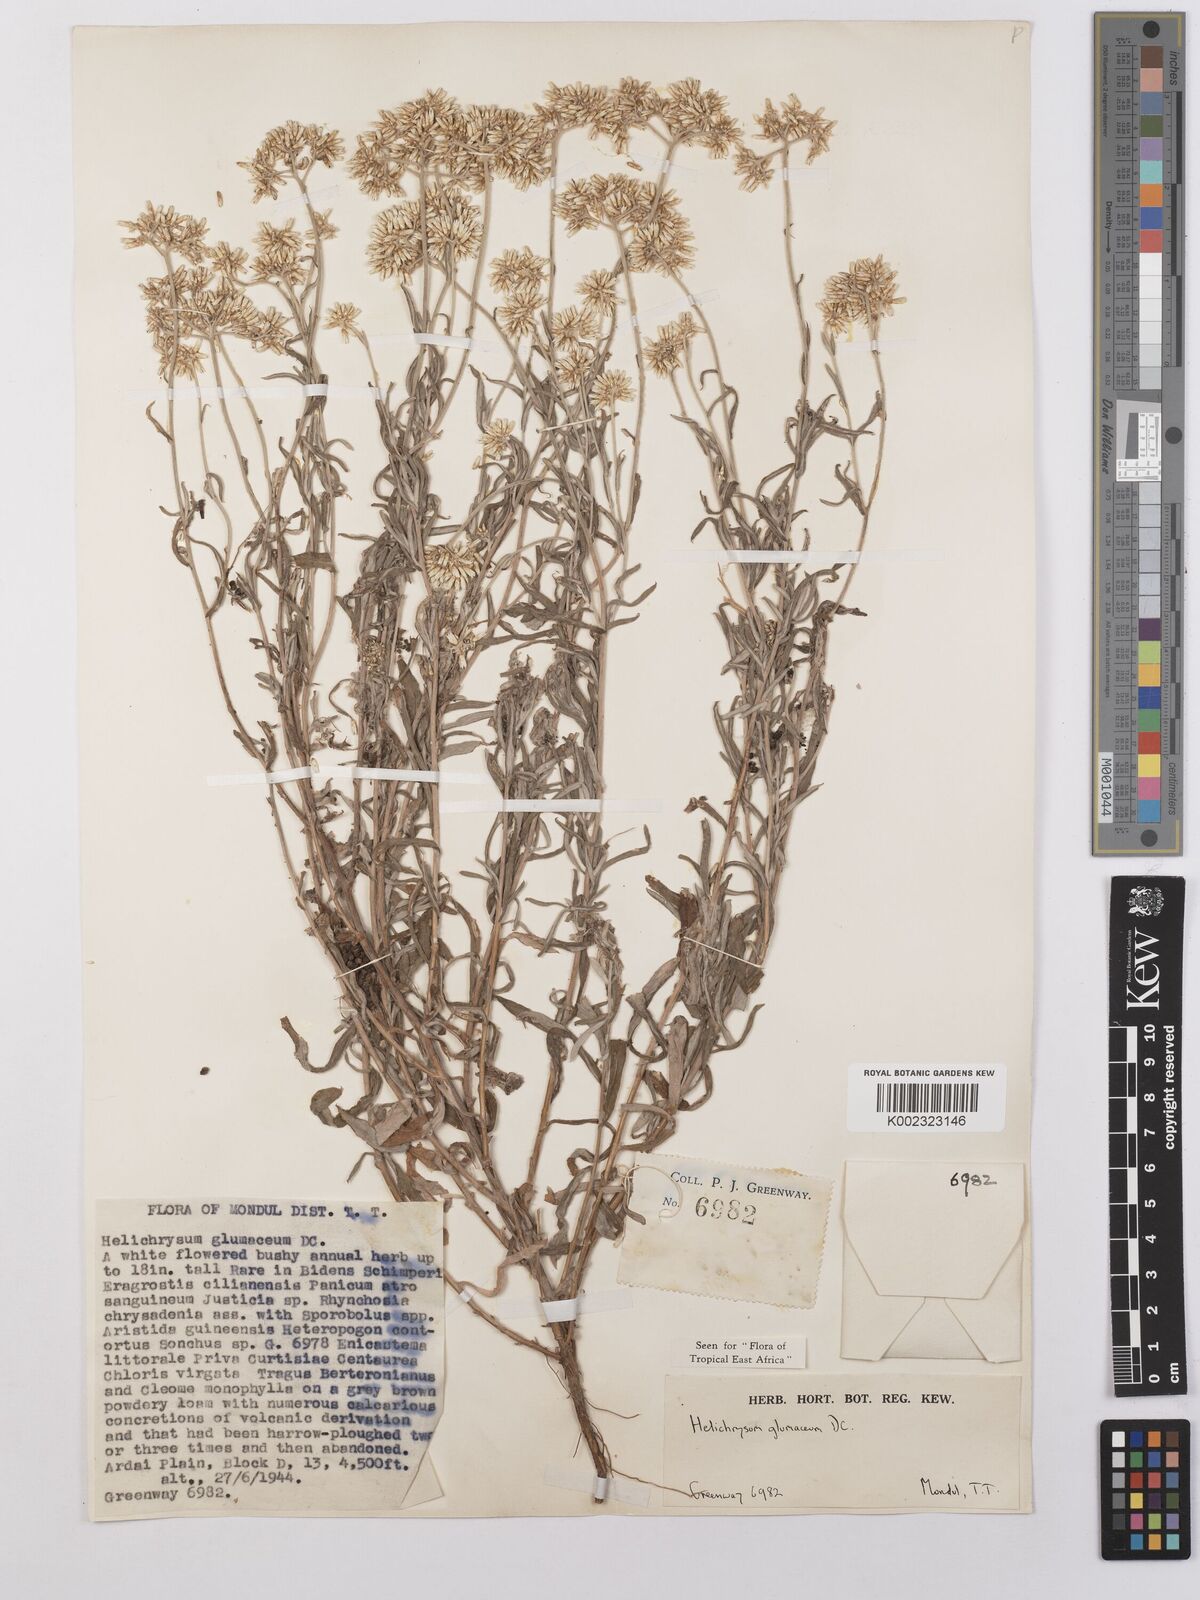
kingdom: Plantae
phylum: Tracheophyta
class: Magnoliopsida
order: Asterales
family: Asteraceae
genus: Helichrysum
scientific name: Helichrysum glumaceum
